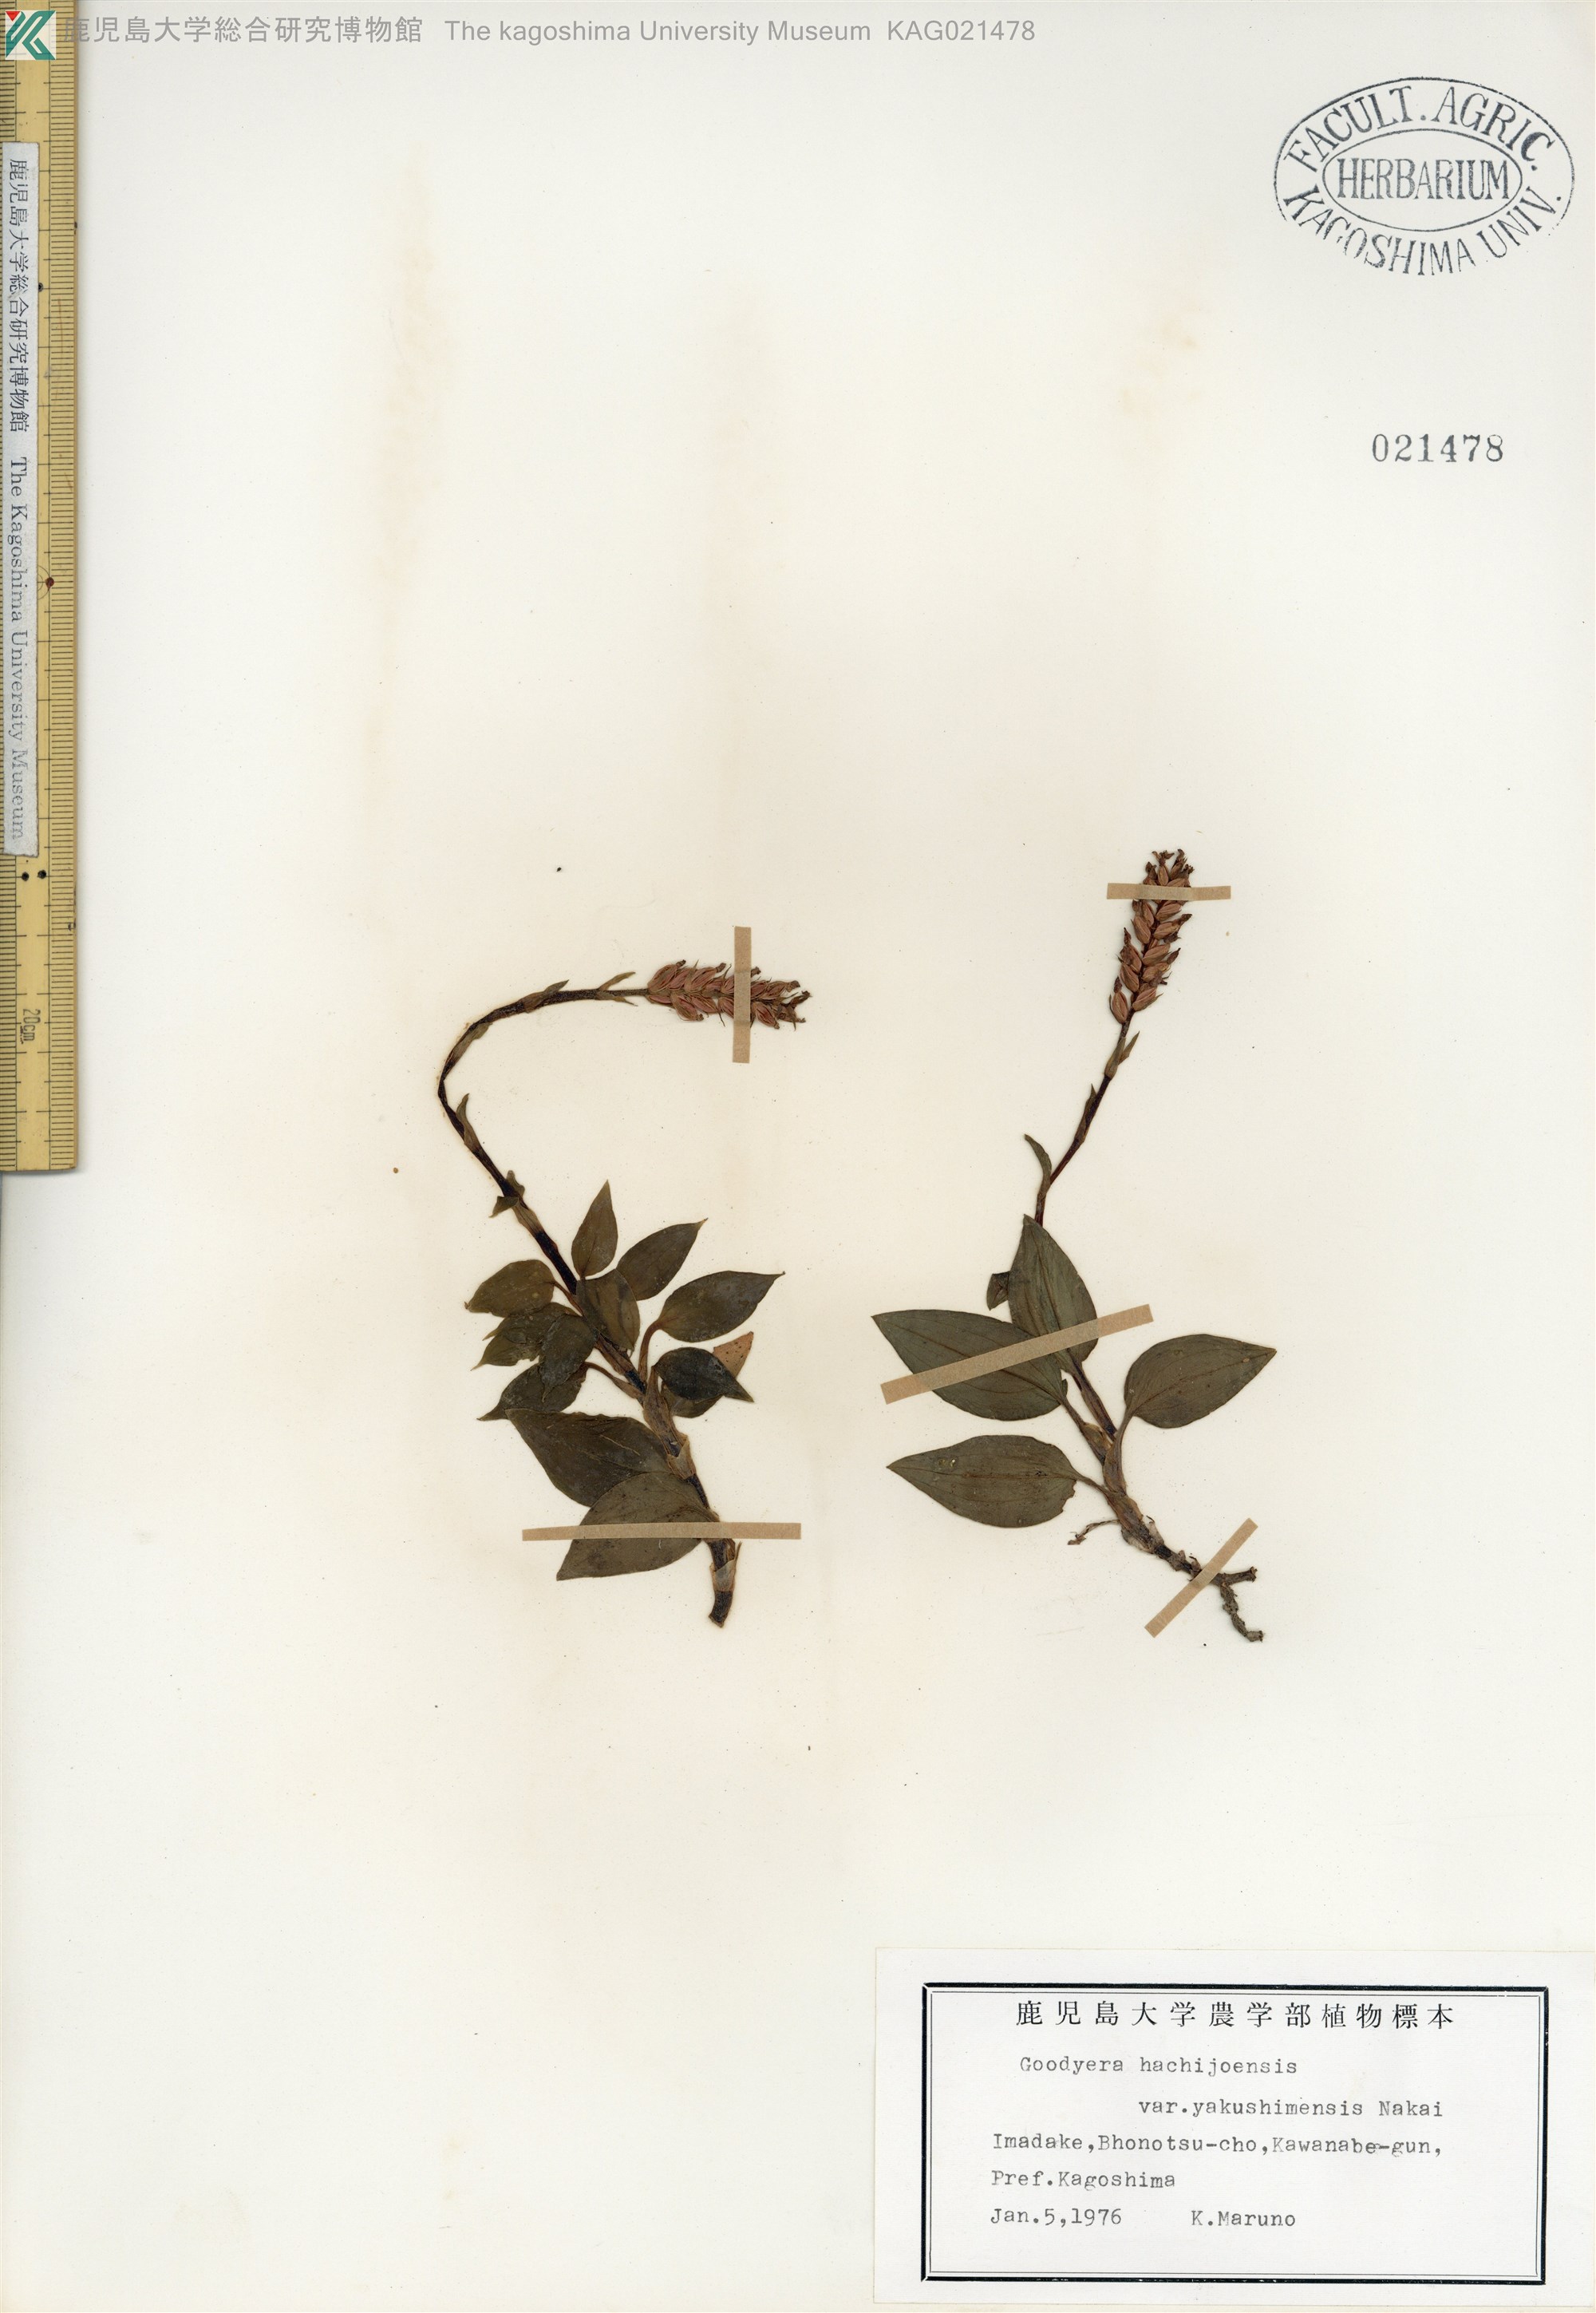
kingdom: Plantae
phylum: Tracheophyta
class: Liliopsida
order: Asparagales
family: Orchidaceae
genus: Goodyera
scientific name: Goodyera hachijoensis
